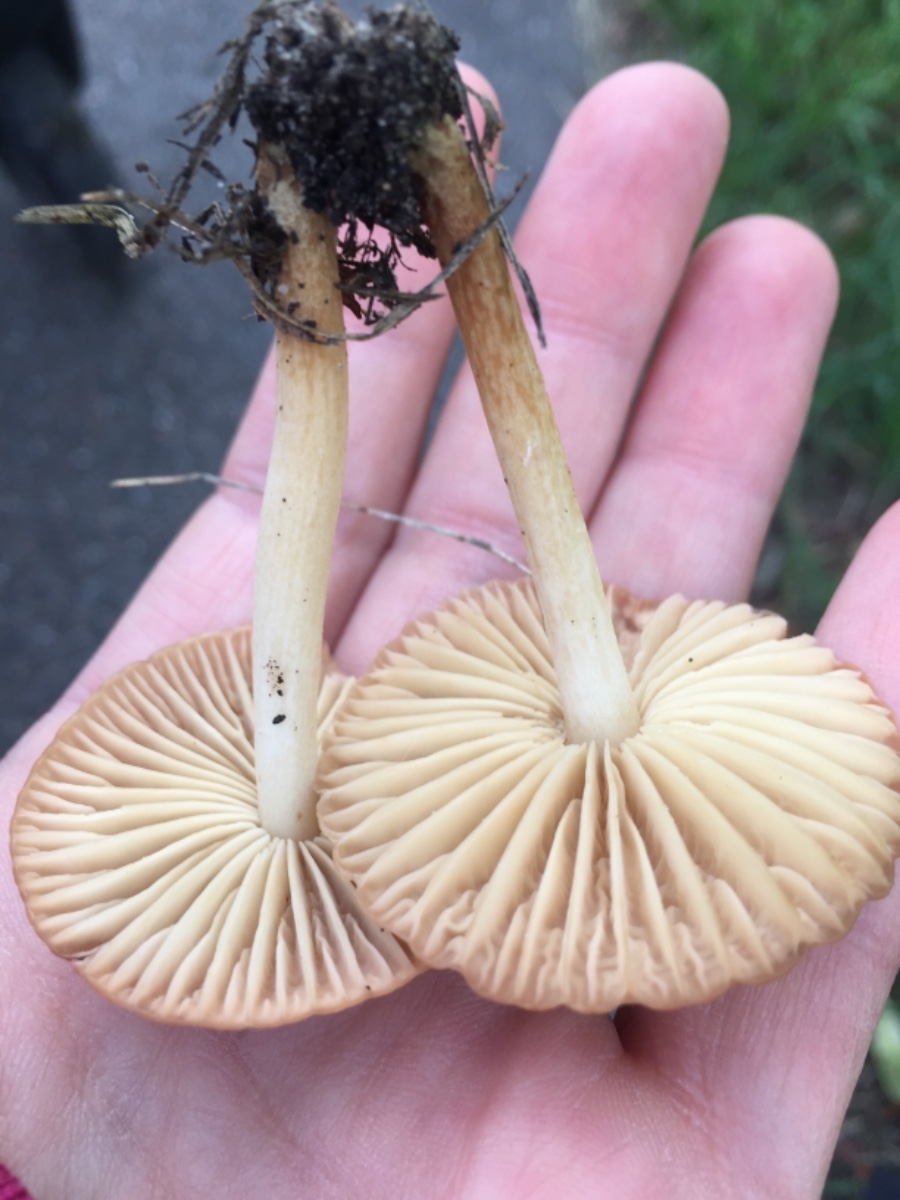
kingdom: Fungi
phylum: Basidiomycota
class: Agaricomycetes
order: Agaricales
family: Marasmiaceae
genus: Marasmius
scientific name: Marasmius oreades
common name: elledans-bruskhat
